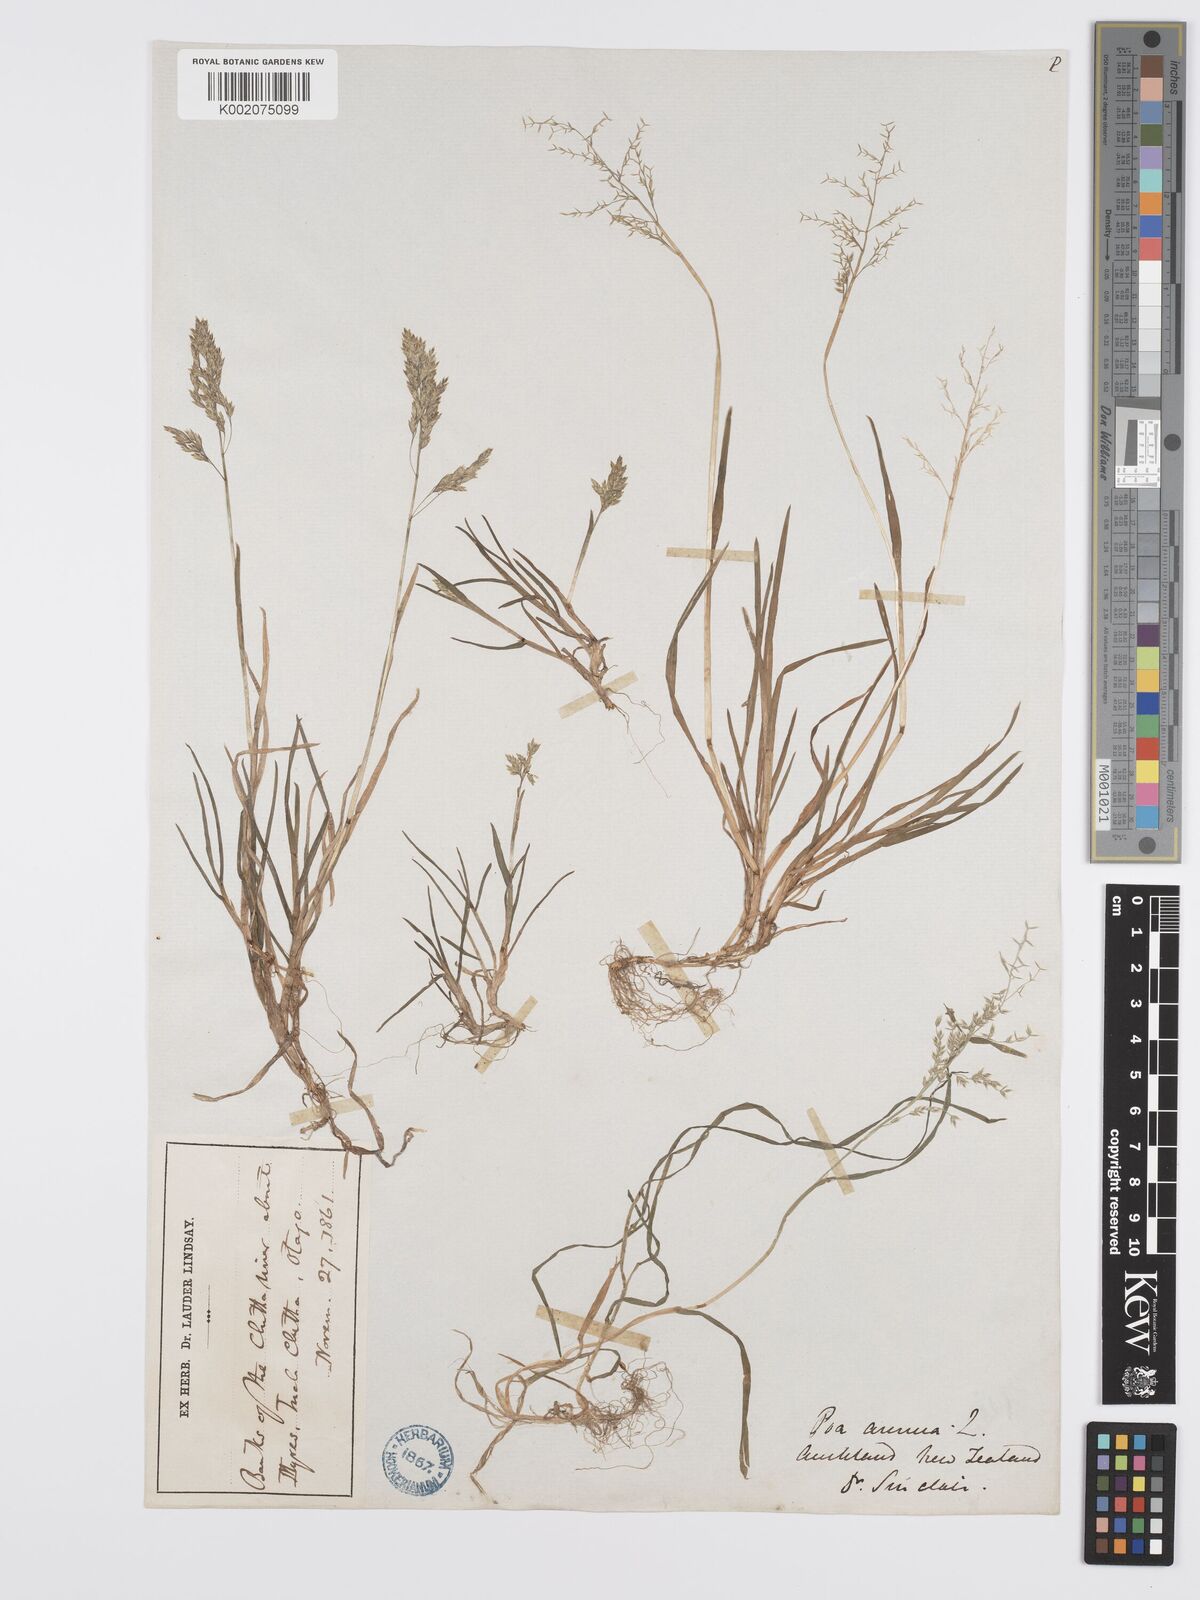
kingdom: Plantae
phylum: Tracheophyta
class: Liliopsida
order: Poales
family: Poaceae
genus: Poa
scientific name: Poa annua
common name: Annual bluegrass
